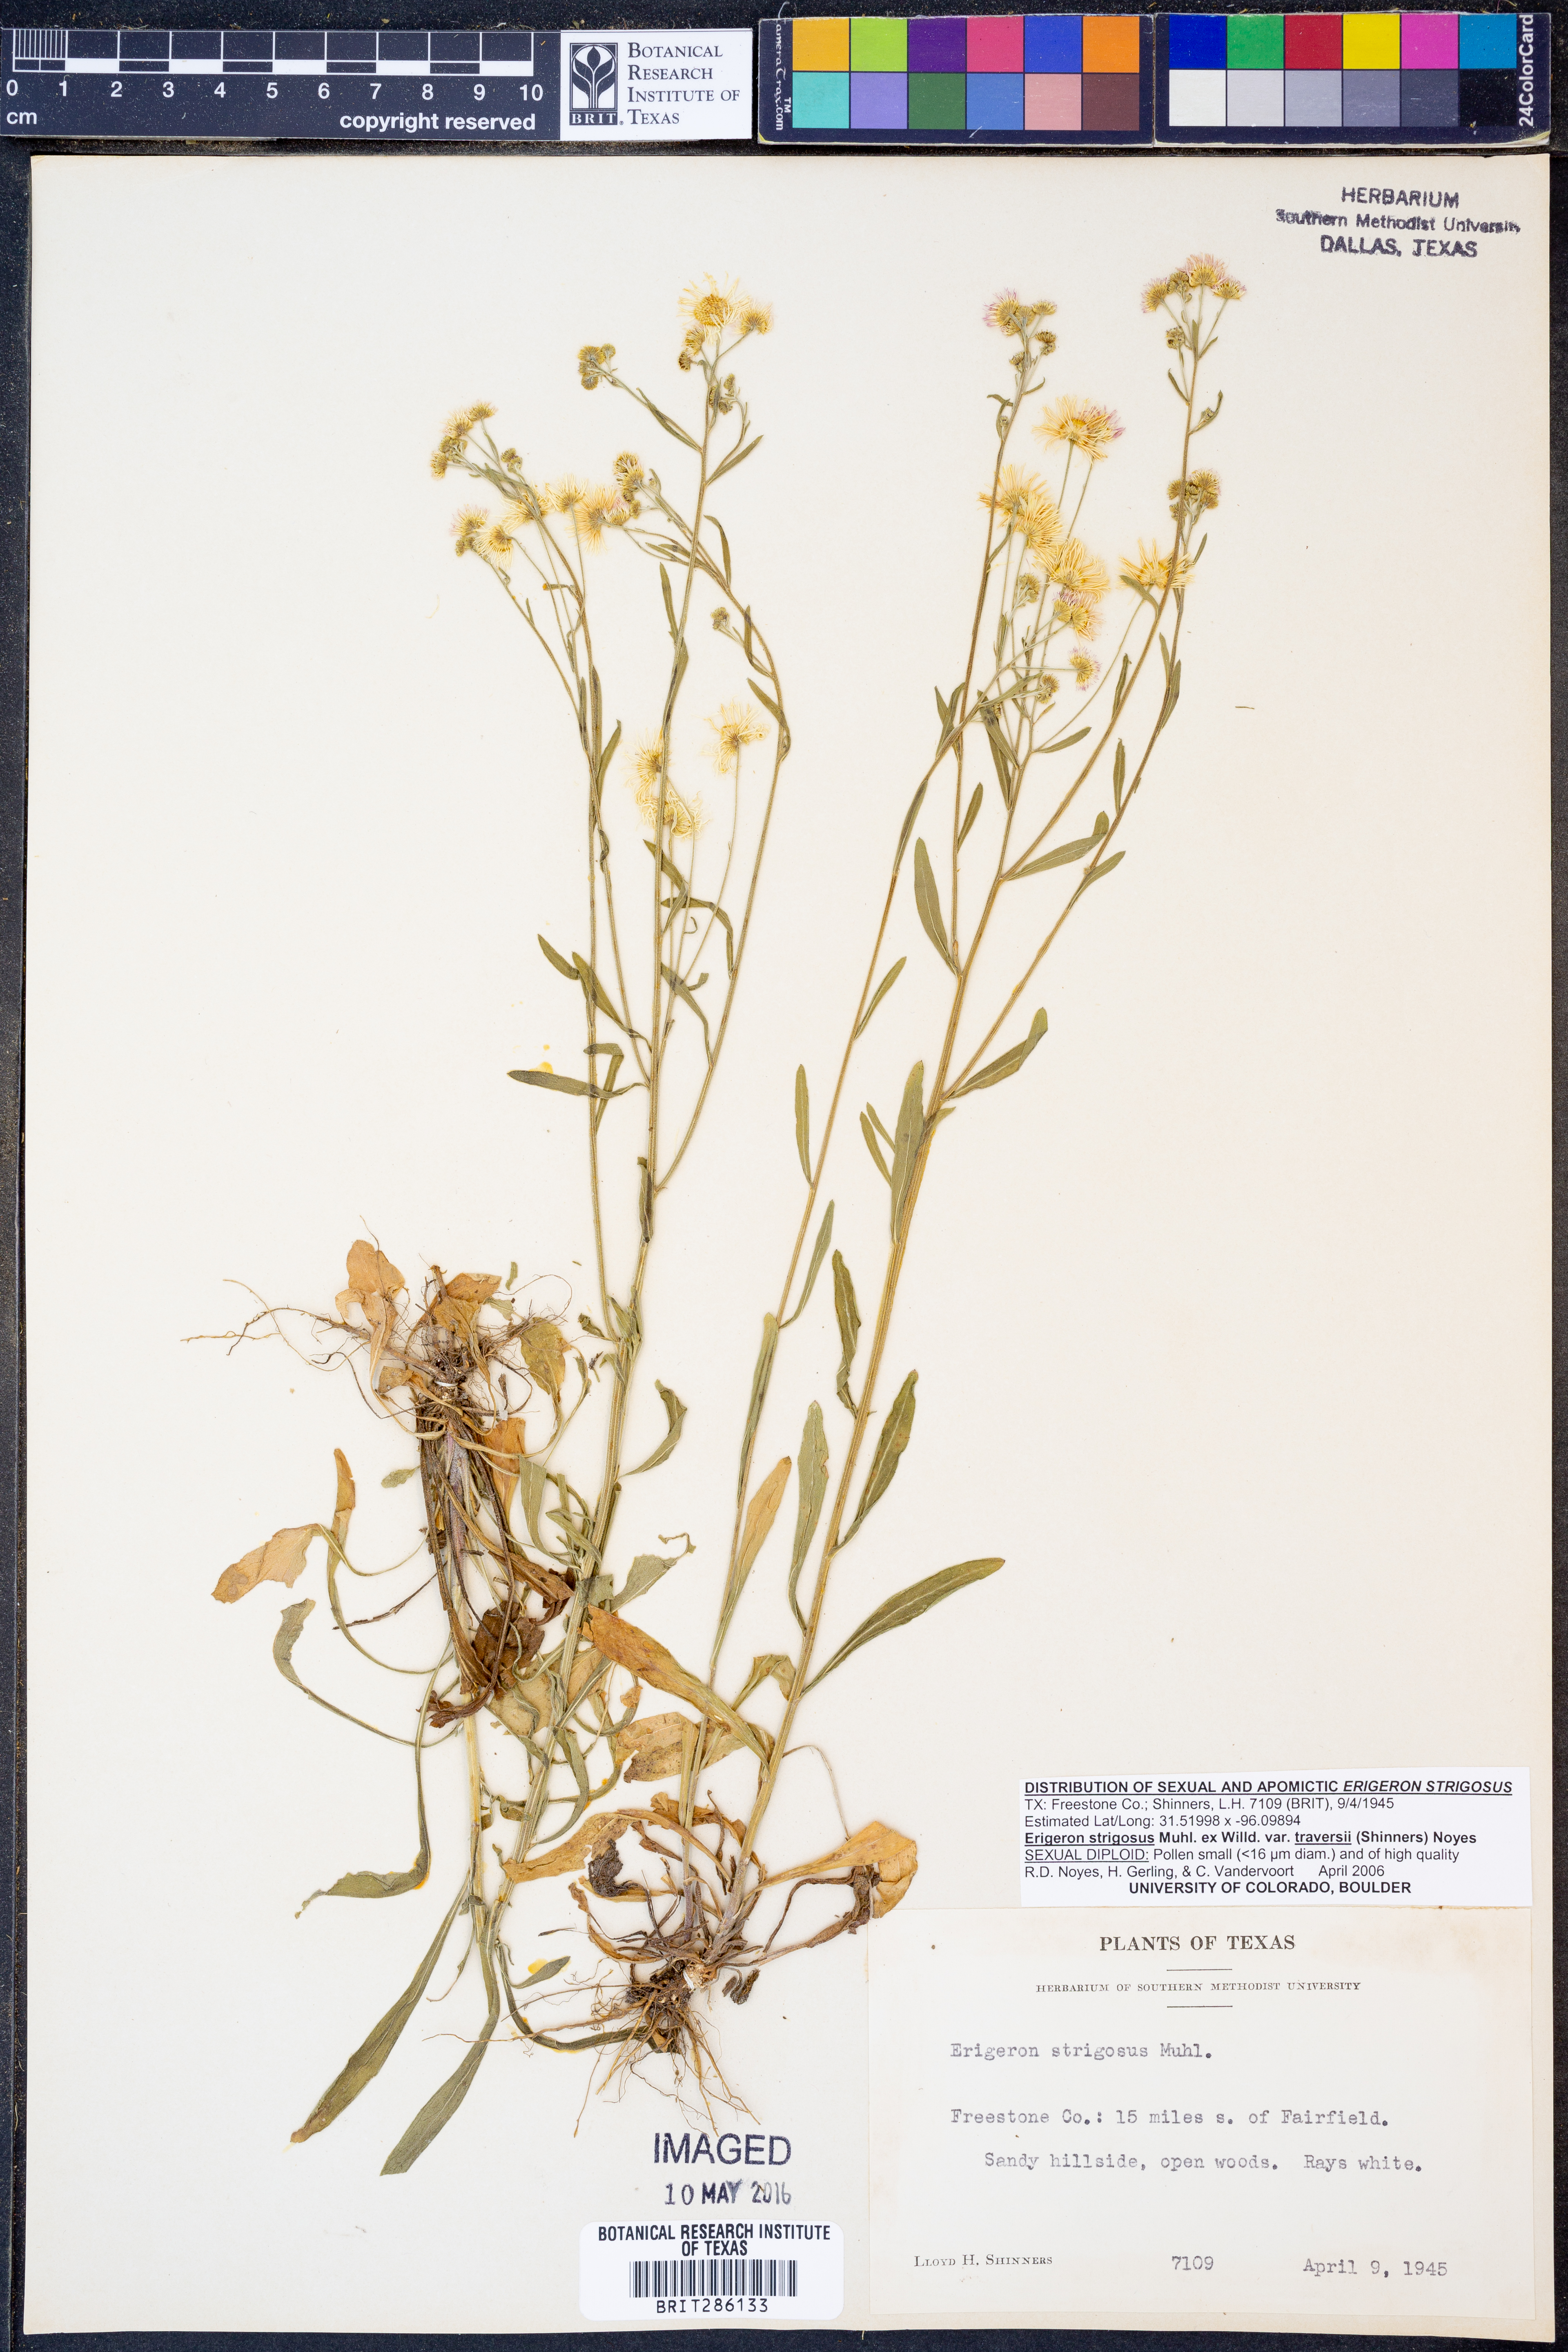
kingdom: Plantae
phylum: Tracheophyta
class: Magnoliopsida
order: Asterales
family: Asteraceae
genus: Erigeron
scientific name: Erigeron strigosus
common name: Common eastern fleabane
